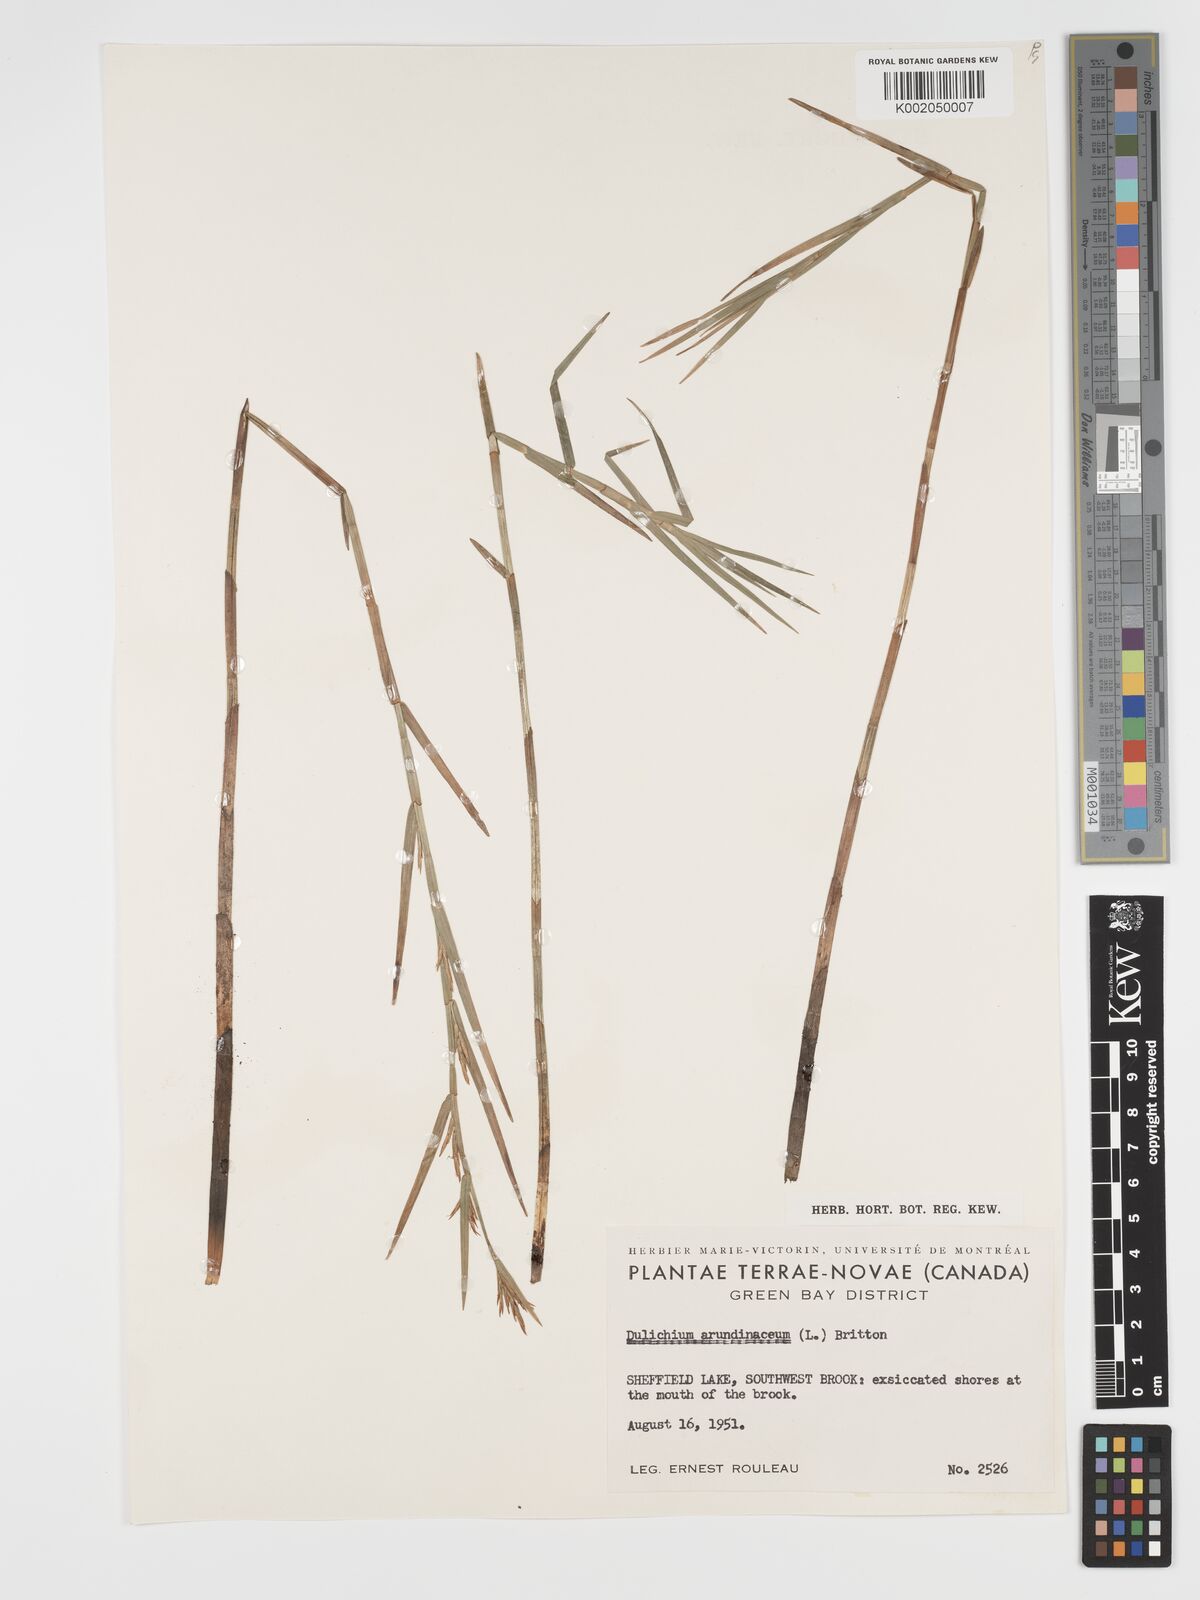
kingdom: Plantae
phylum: Tracheophyta
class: Liliopsida
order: Poales
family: Cyperaceae
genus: Dulichium
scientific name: Dulichium arundinaceum
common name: Three-way sedge
